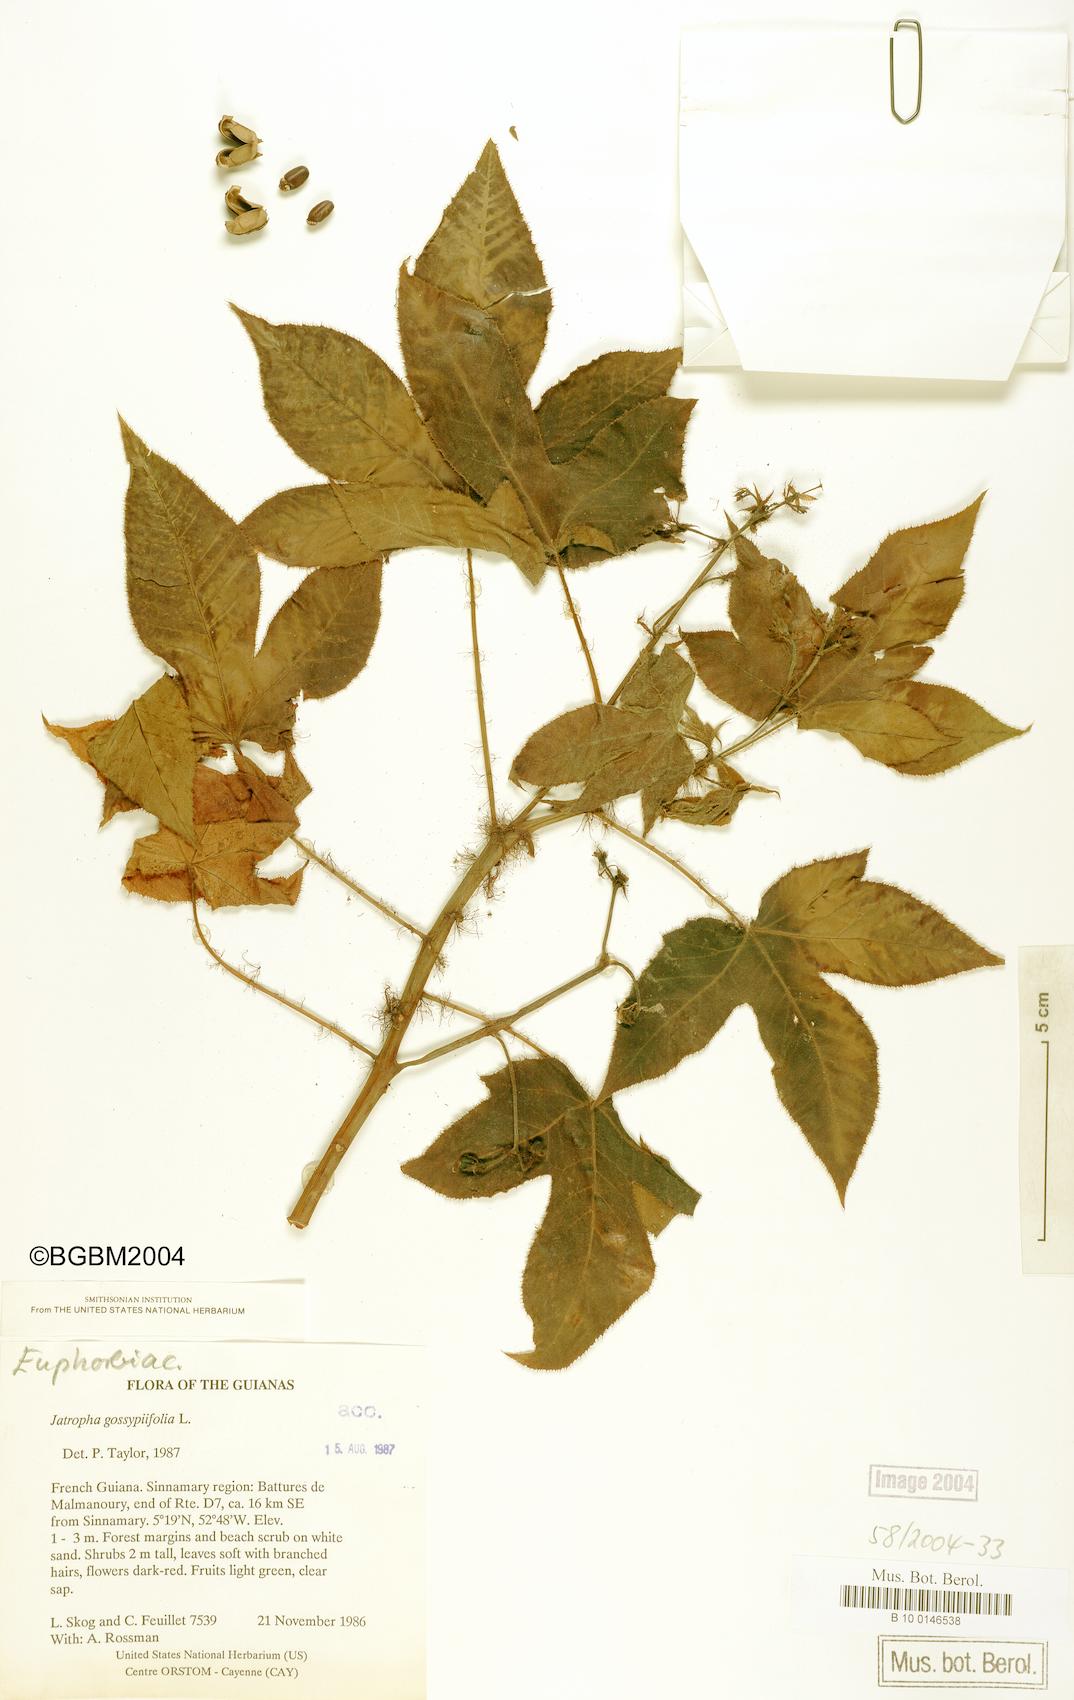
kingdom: Plantae
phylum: Tracheophyta
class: Magnoliopsida
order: Malpighiales
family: Euphorbiaceae
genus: Jatropha
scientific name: Jatropha gossypiifolia
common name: Bellyache bush
